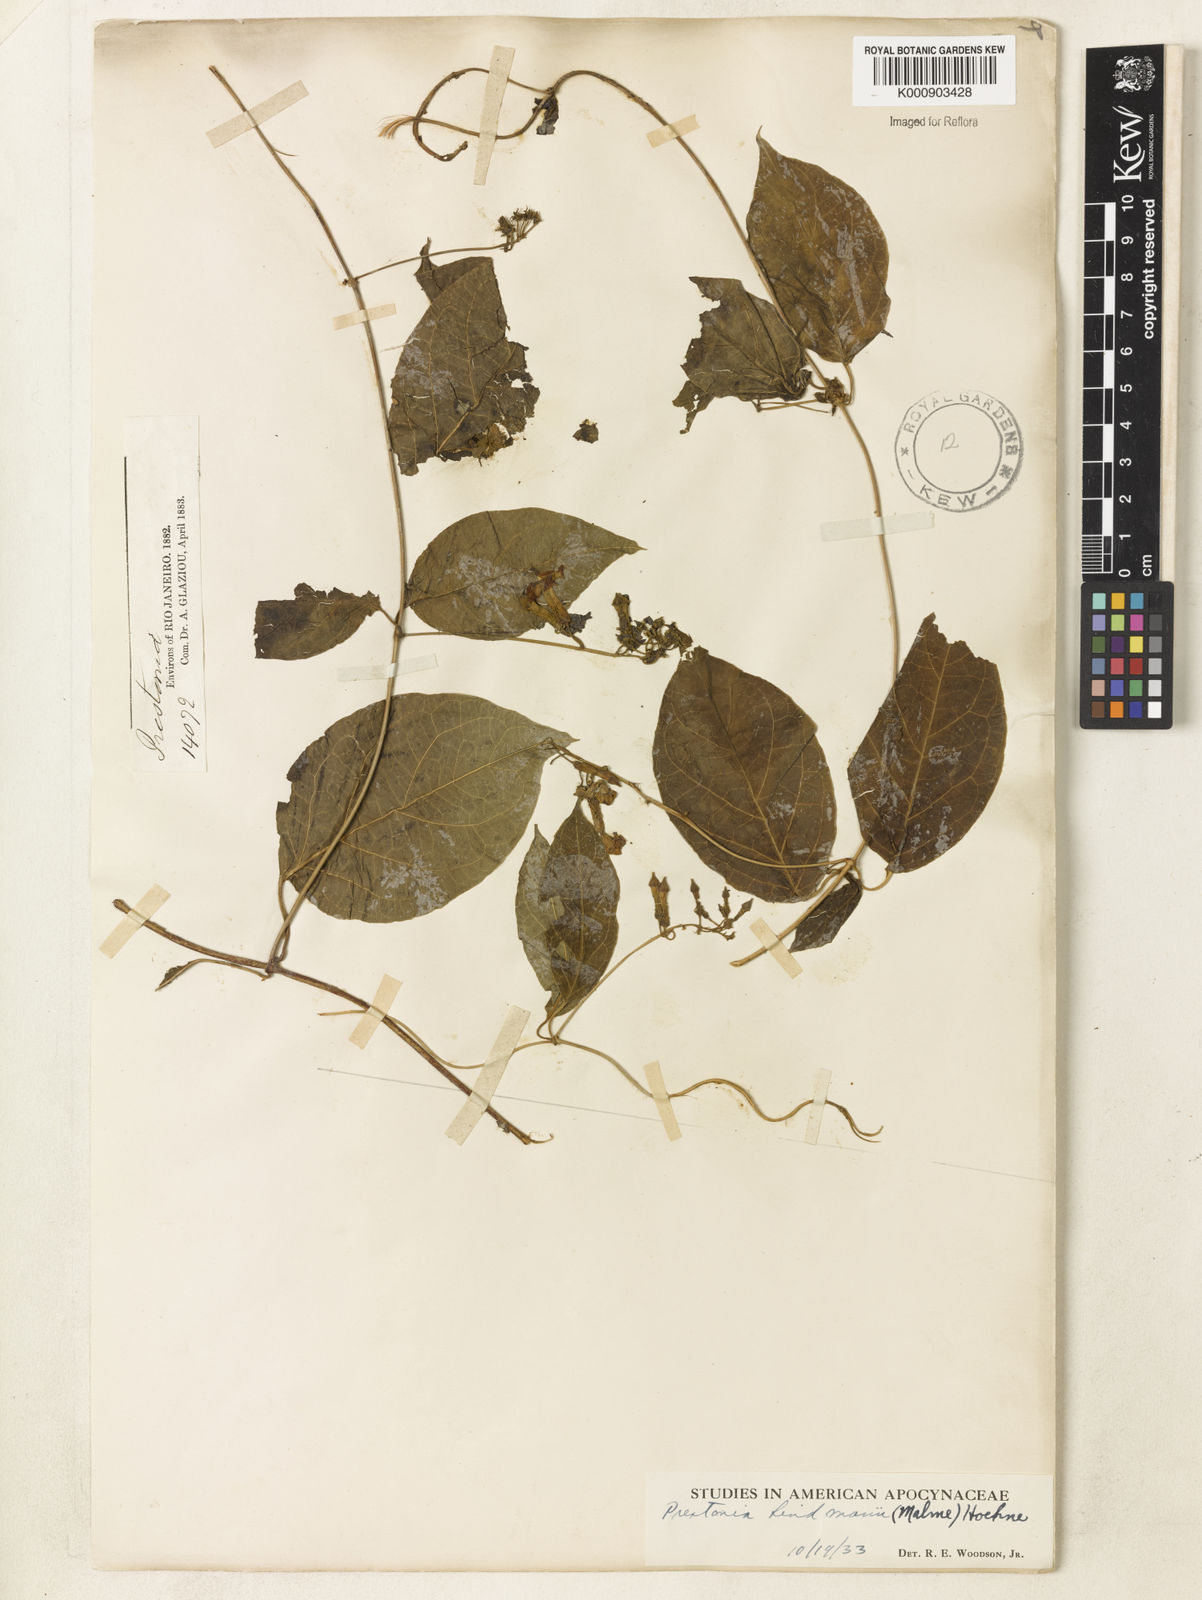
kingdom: Plantae
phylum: Tracheophyta
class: Magnoliopsida
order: Gentianales
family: Apocynaceae
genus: Prestonia
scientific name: Prestonia lindmanii
